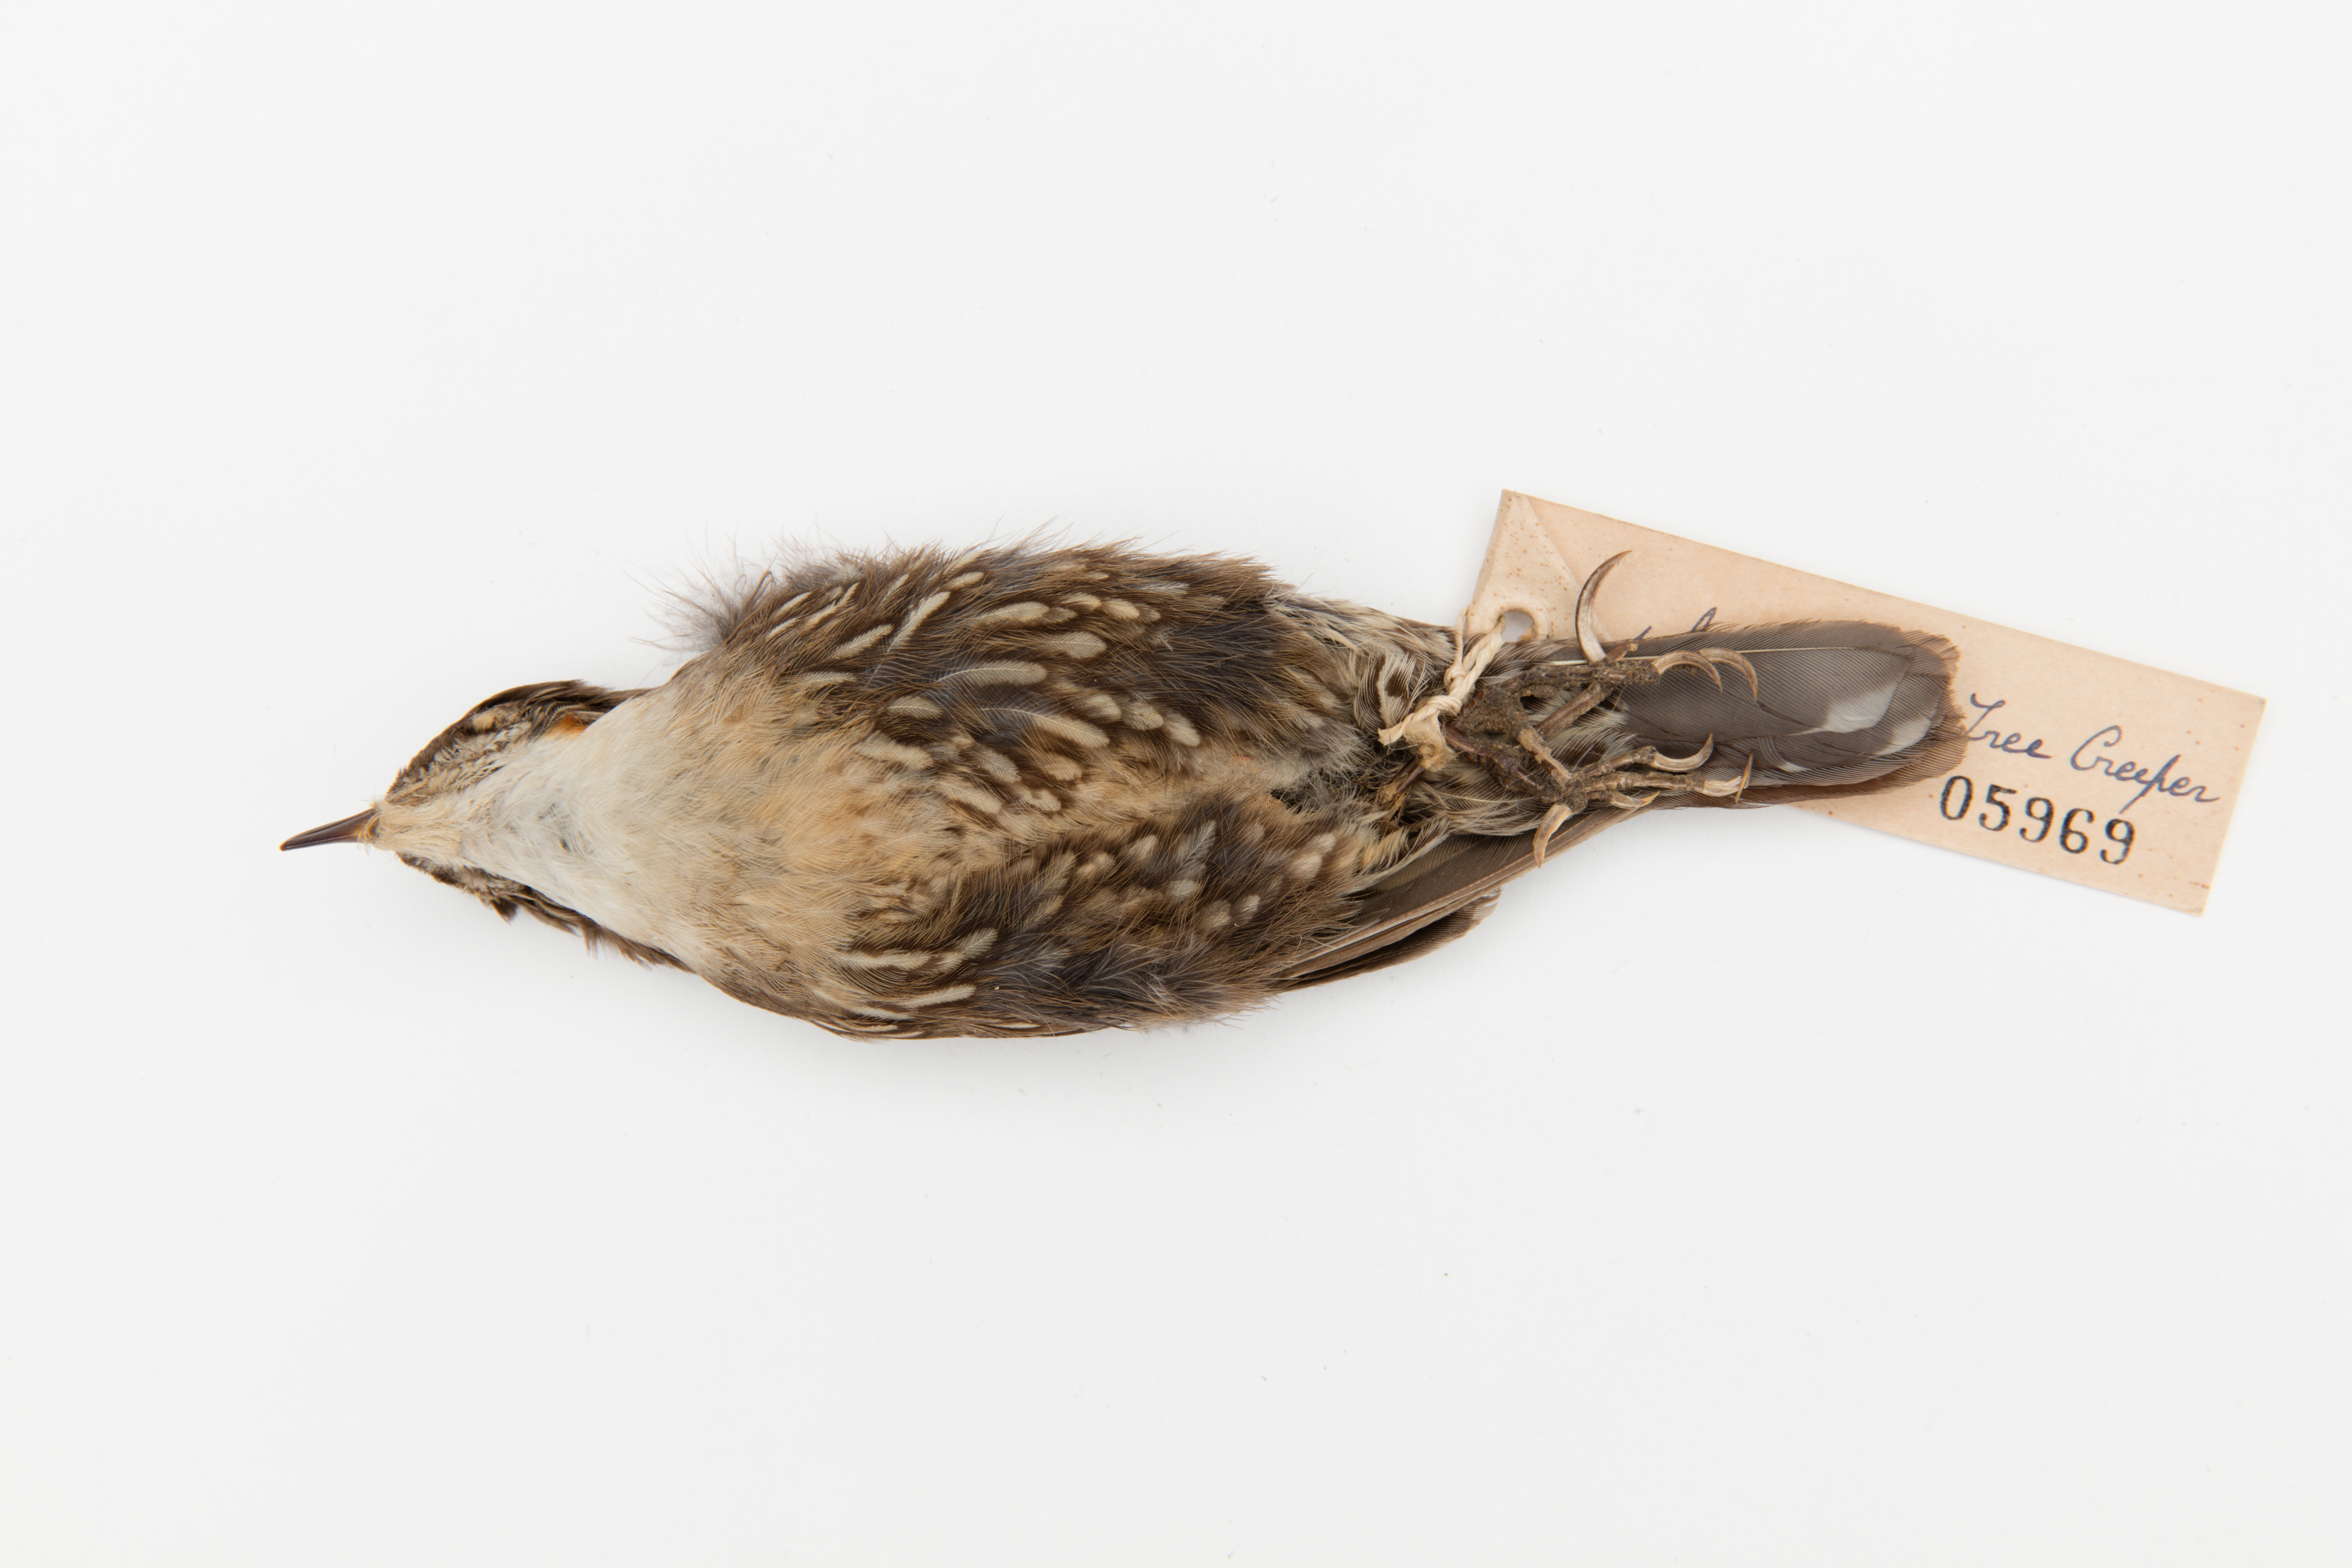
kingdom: Animalia
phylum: Chordata
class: Aves
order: Passeriformes
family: Climacteridae
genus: Climacteris
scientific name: Climacteris
